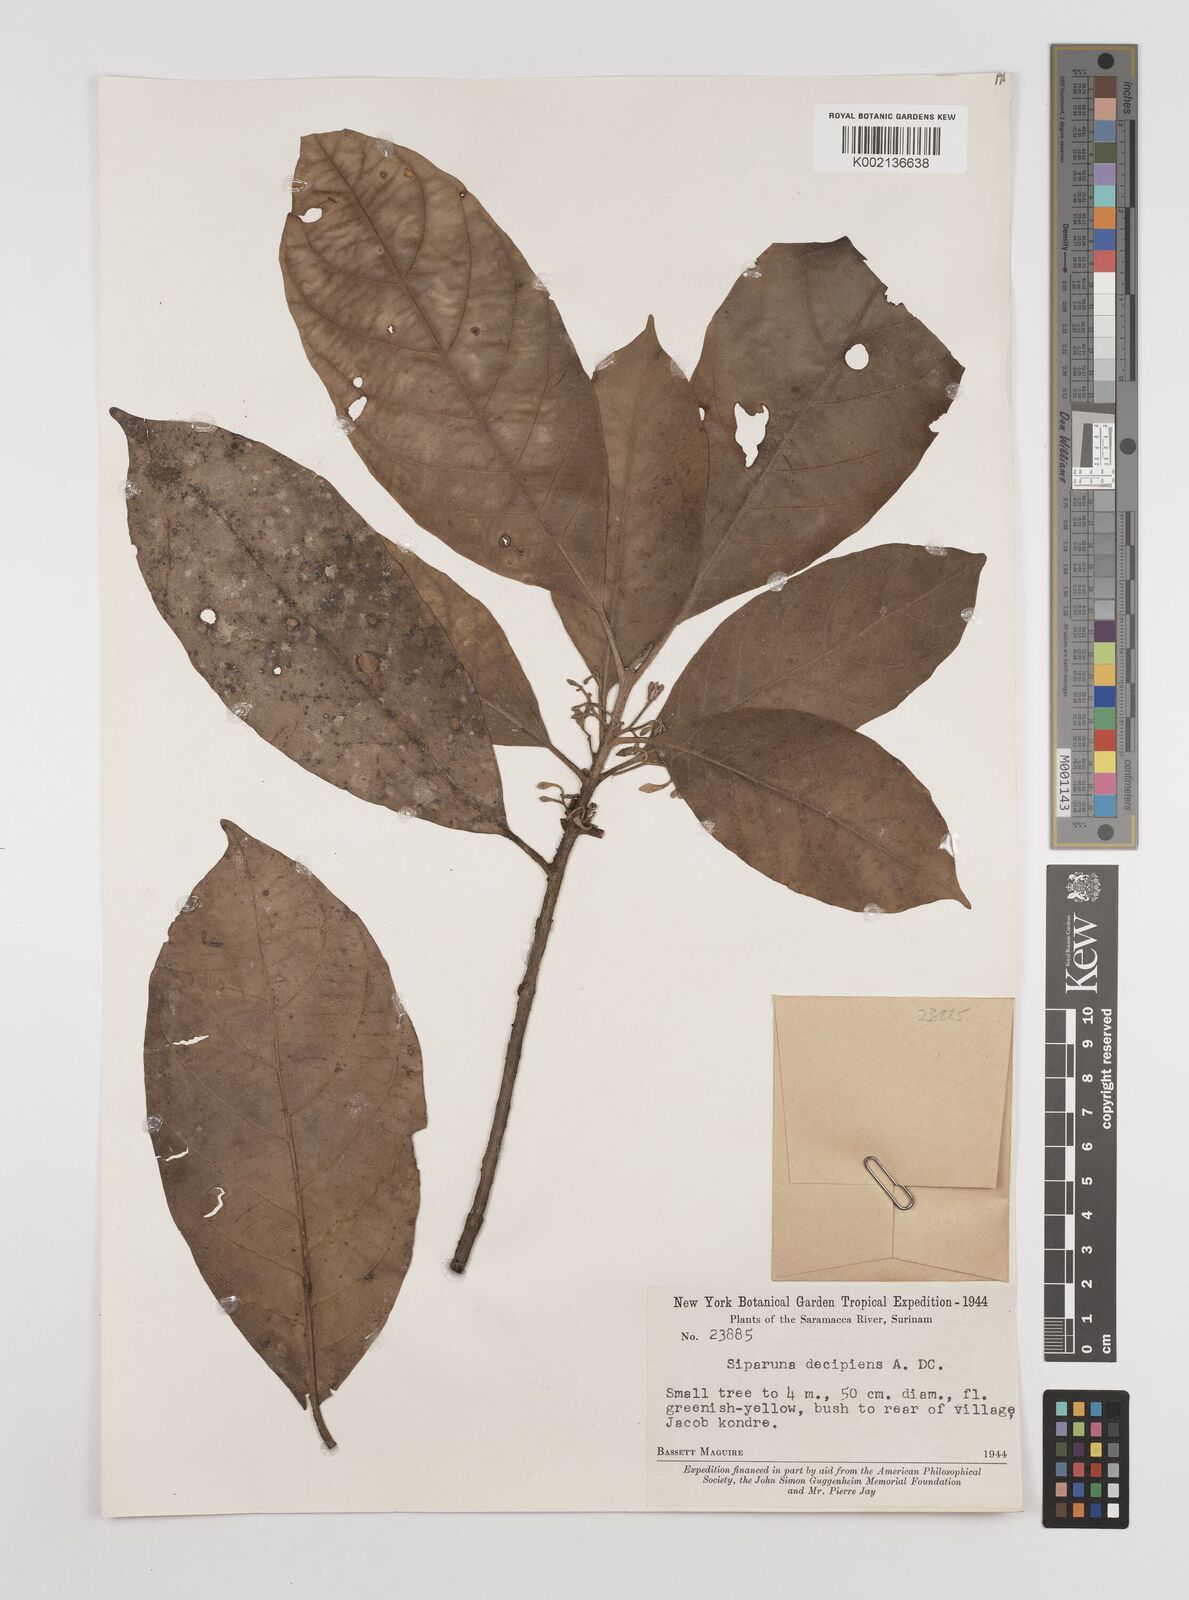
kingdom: Plantae
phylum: Tracheophyta
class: Magnoliopsida
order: Laurales
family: Siparunaceae
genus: Siparuna
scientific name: Siparuna decipiens
